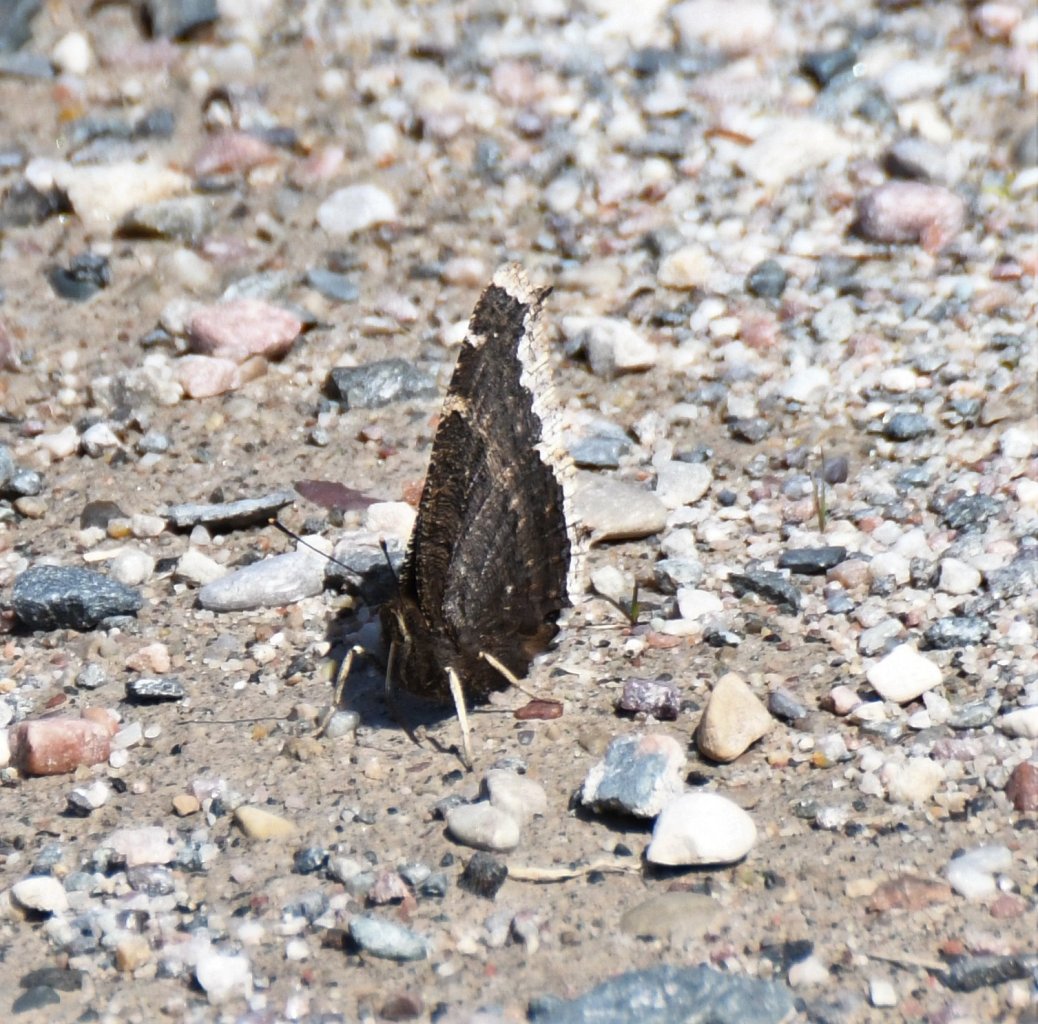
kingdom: Animalia
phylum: Arthropoda
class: Insecta
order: Lepidoptera
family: Nymphalidae
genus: Nymphalis
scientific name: Nymphalis antiopa
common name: Mourning Cloak
